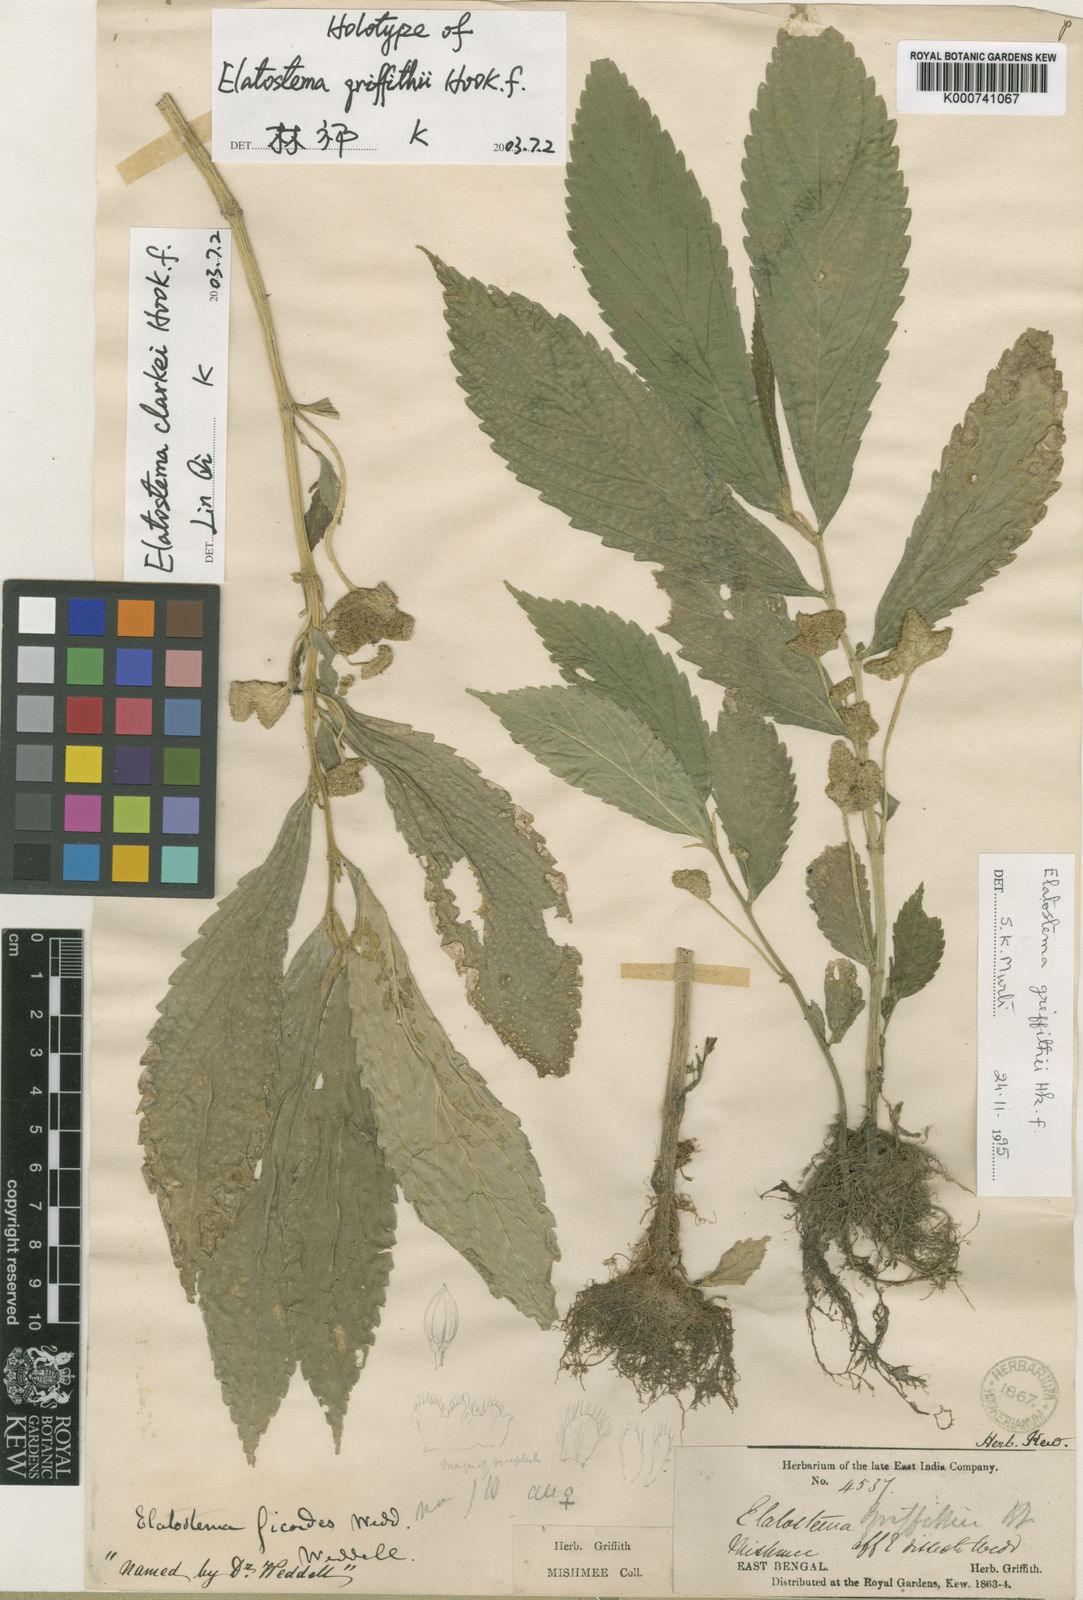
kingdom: Plantae
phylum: Tracheophyta
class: Magnoliopsida
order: Rosales
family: Urticaceae
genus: Elatostema
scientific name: Elatostema clarkei
